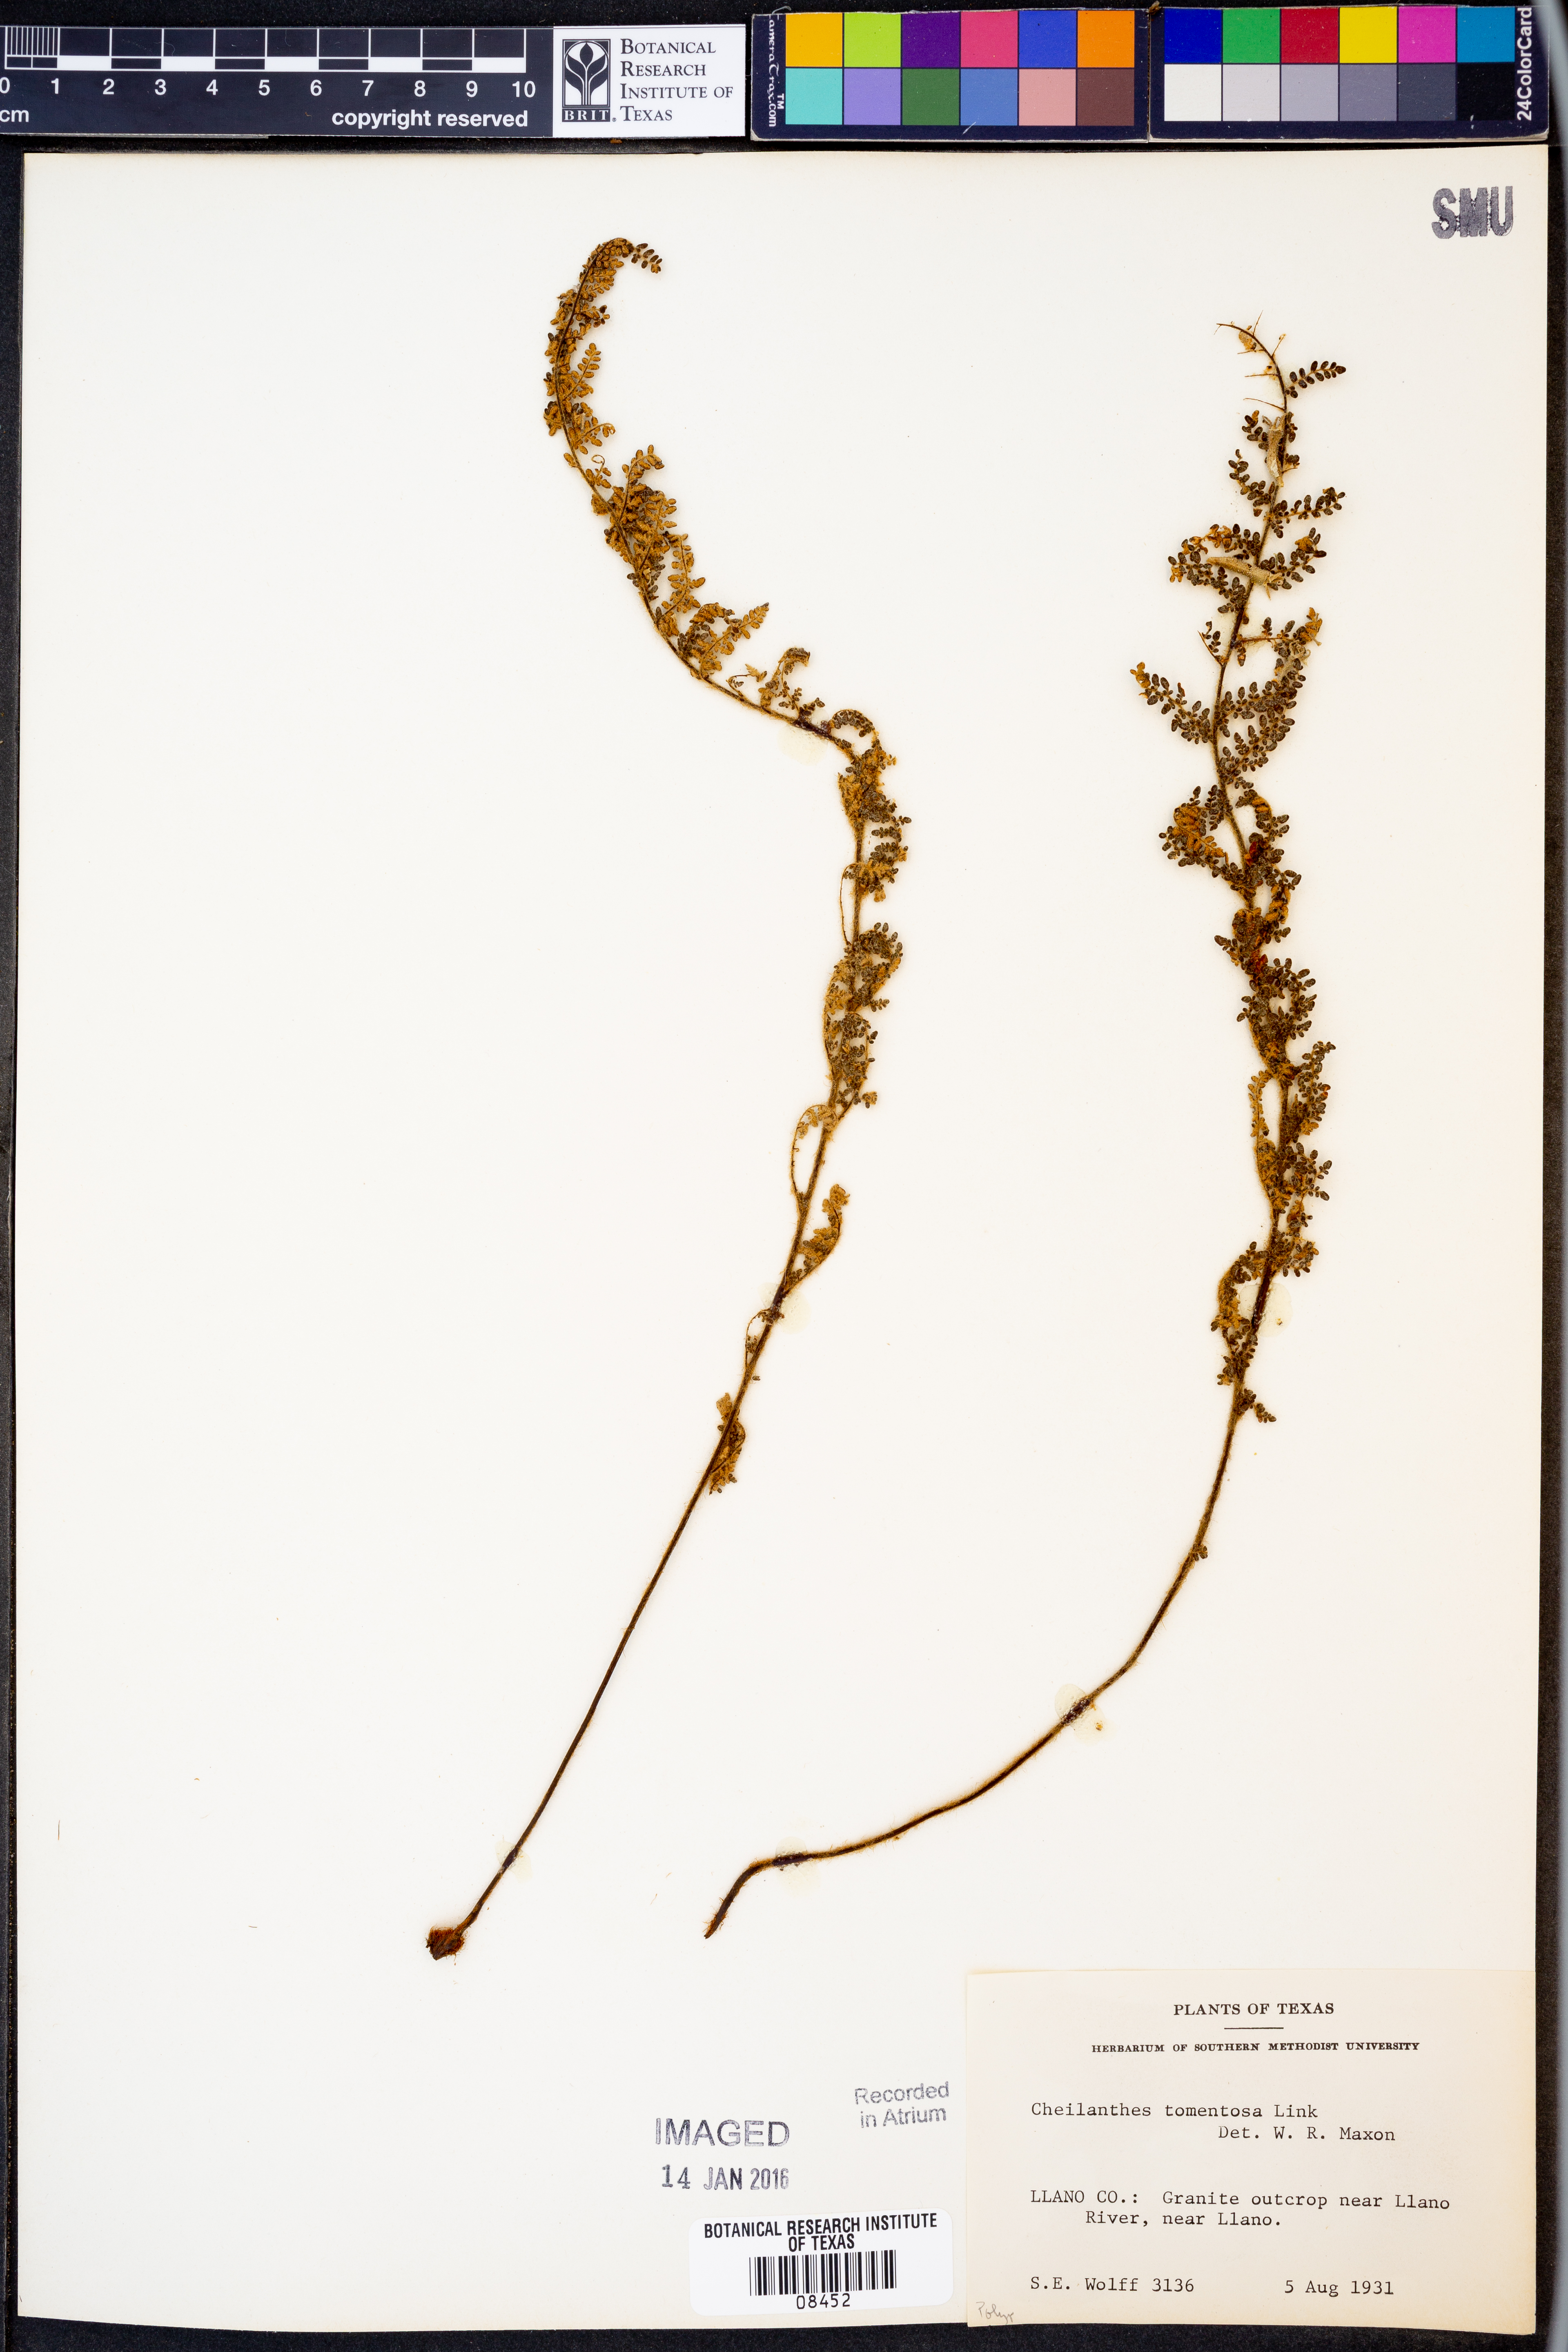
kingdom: Plantae
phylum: Tracheophyta
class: Polypodiopsida
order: Polypodiales
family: Pteridaceae
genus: Myriopteris
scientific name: Myriopteris tomentosa
